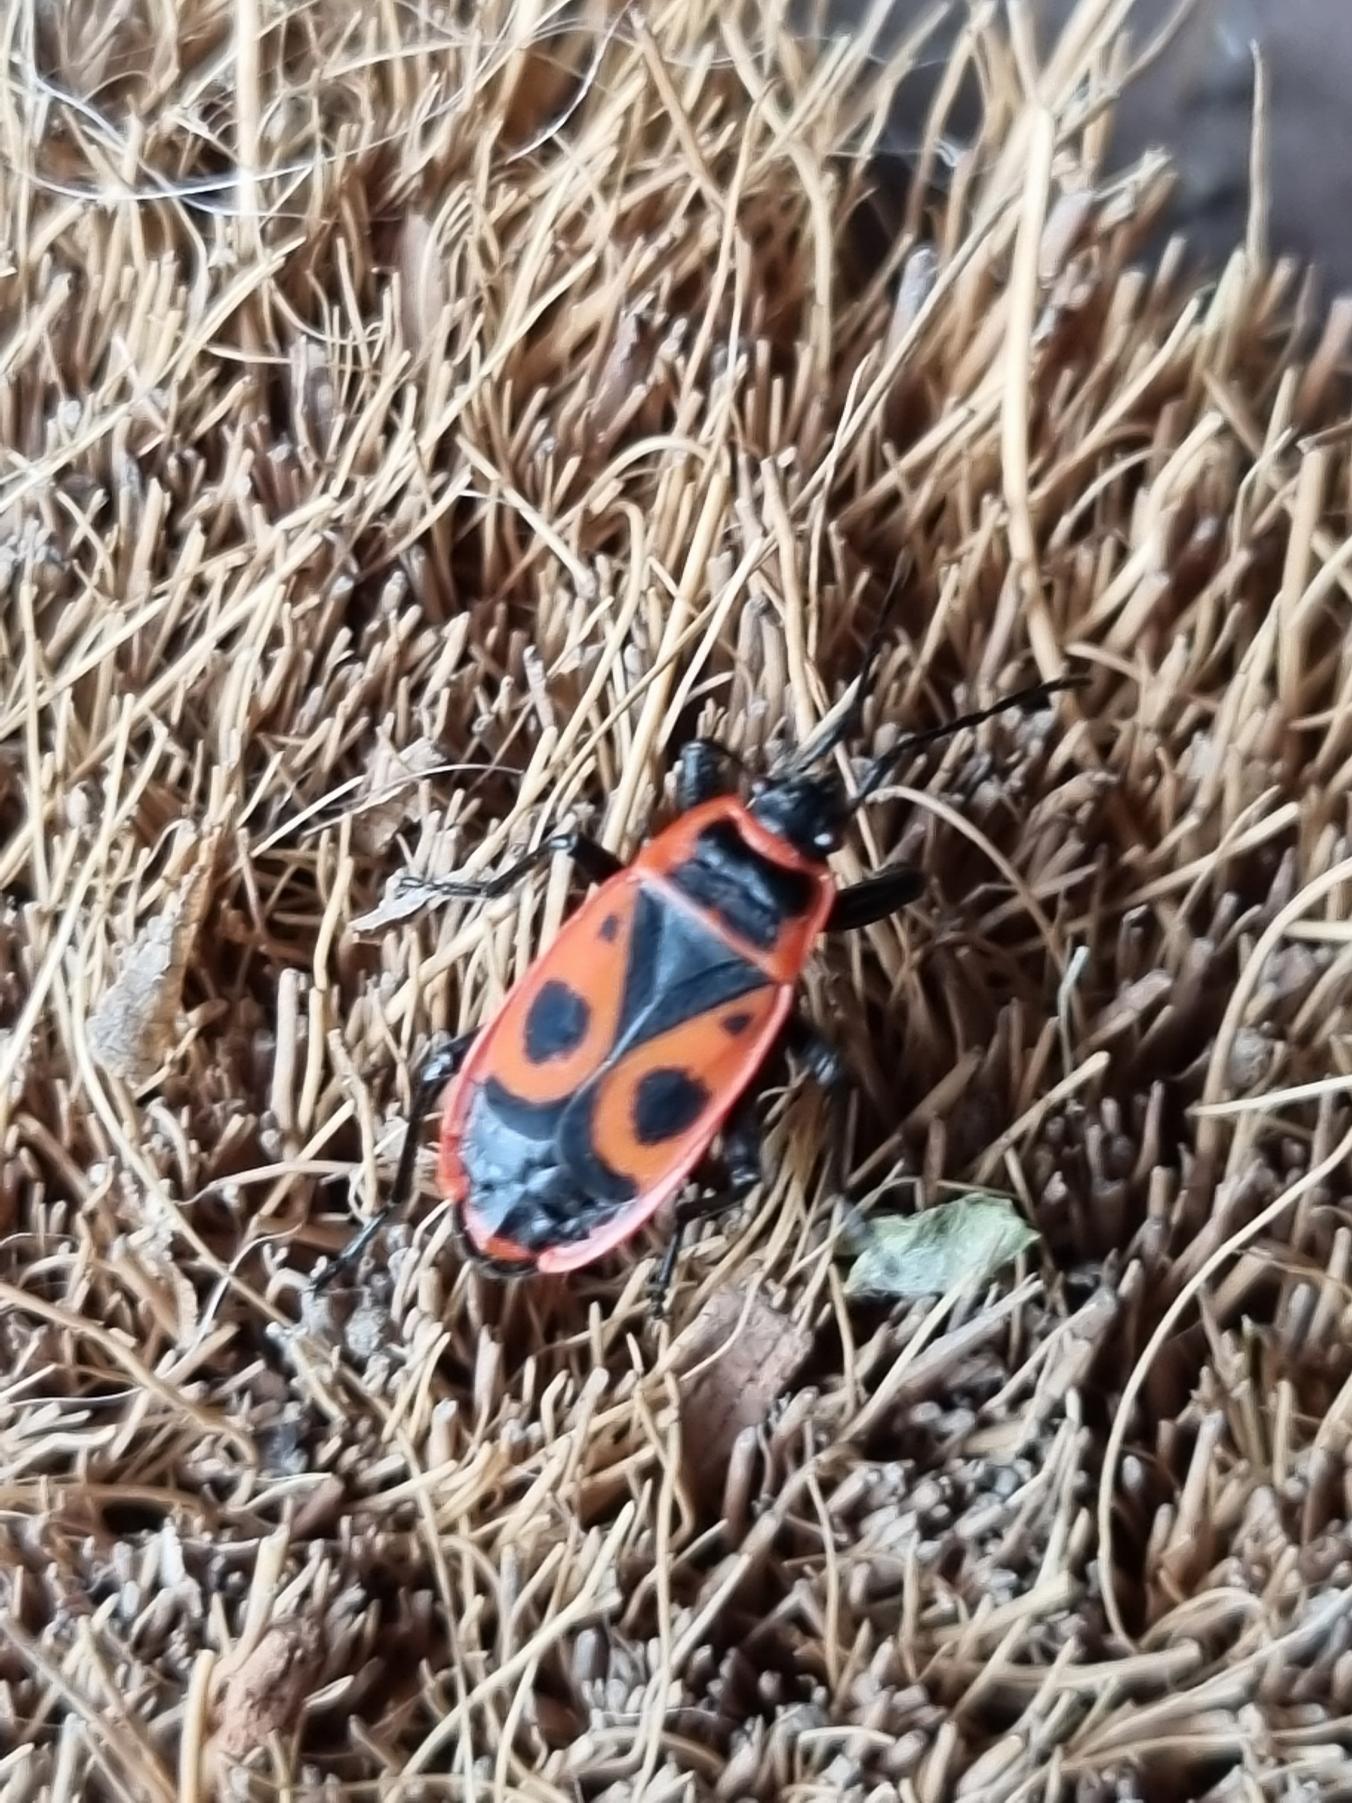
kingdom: Animalia
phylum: Arthropoda
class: Insecta
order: Hemiptera
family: Pyrrhocoridae
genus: Pyrrhocoris
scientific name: Pyrrhocoris apterus
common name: Ildtæge
